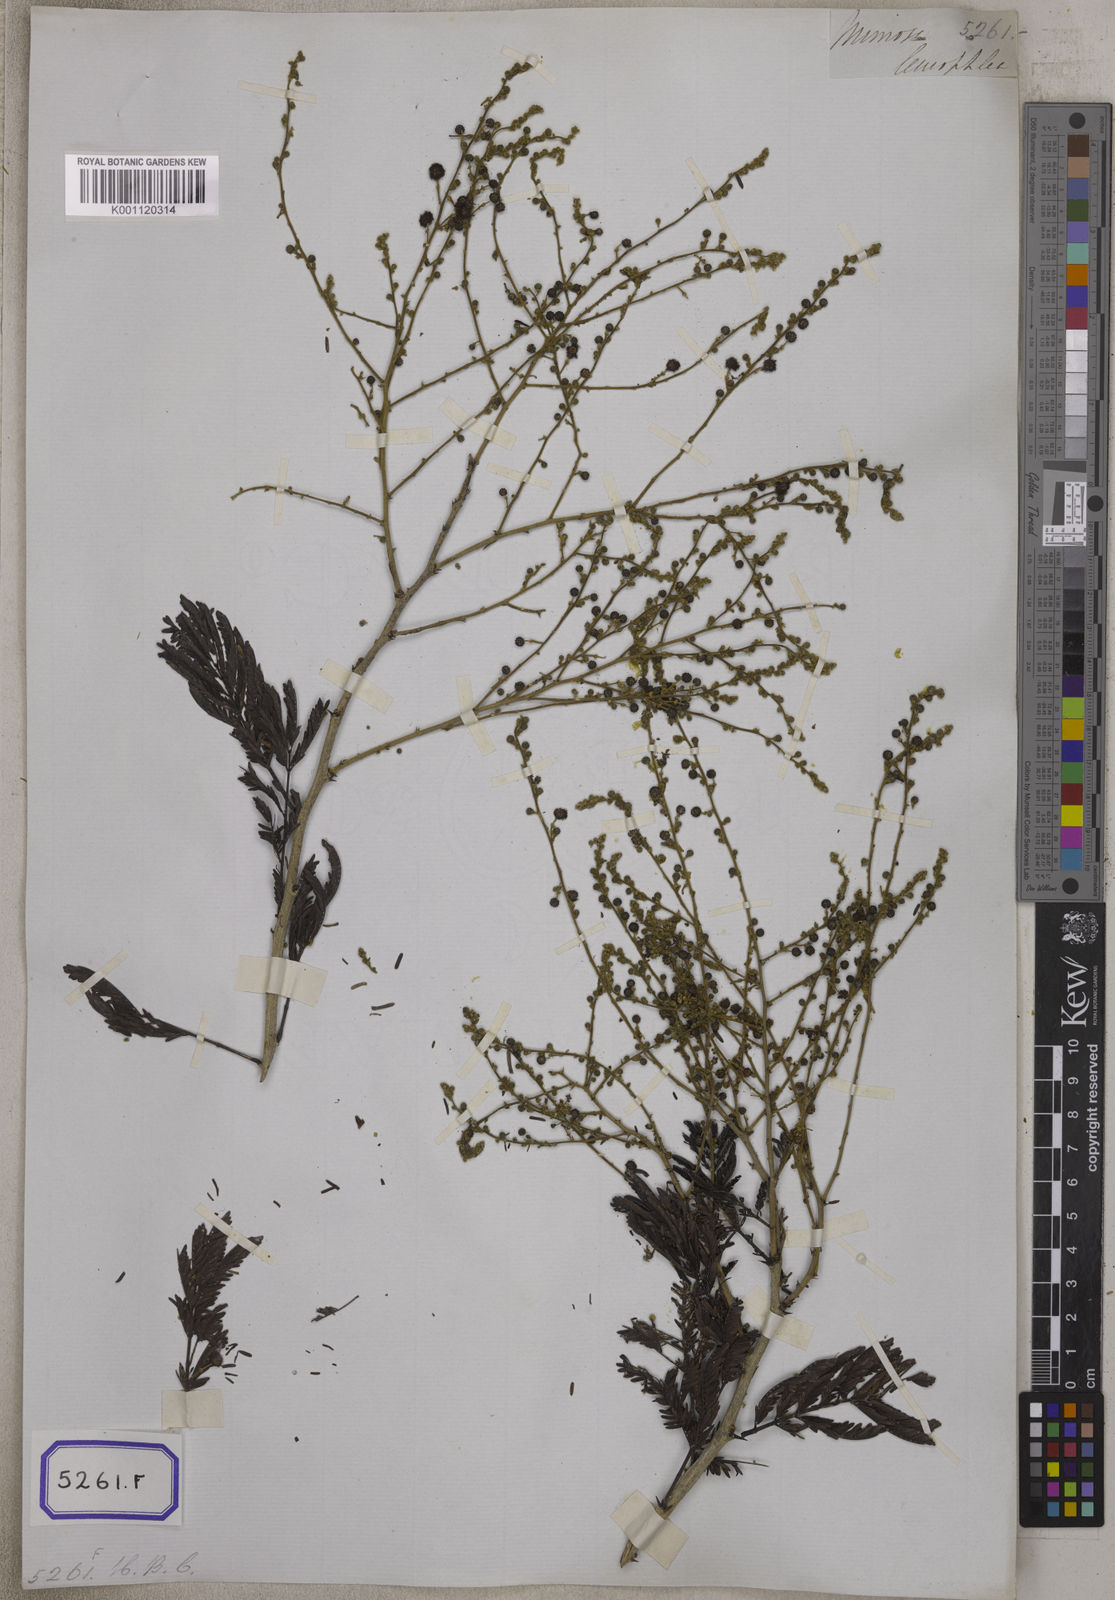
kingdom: Plantae
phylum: Tracheophyta
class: Magnoliopsida
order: Fabales
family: Fabaceae
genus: Vachellia
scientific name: Vachellia leucophloea
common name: Distiller's acacia
